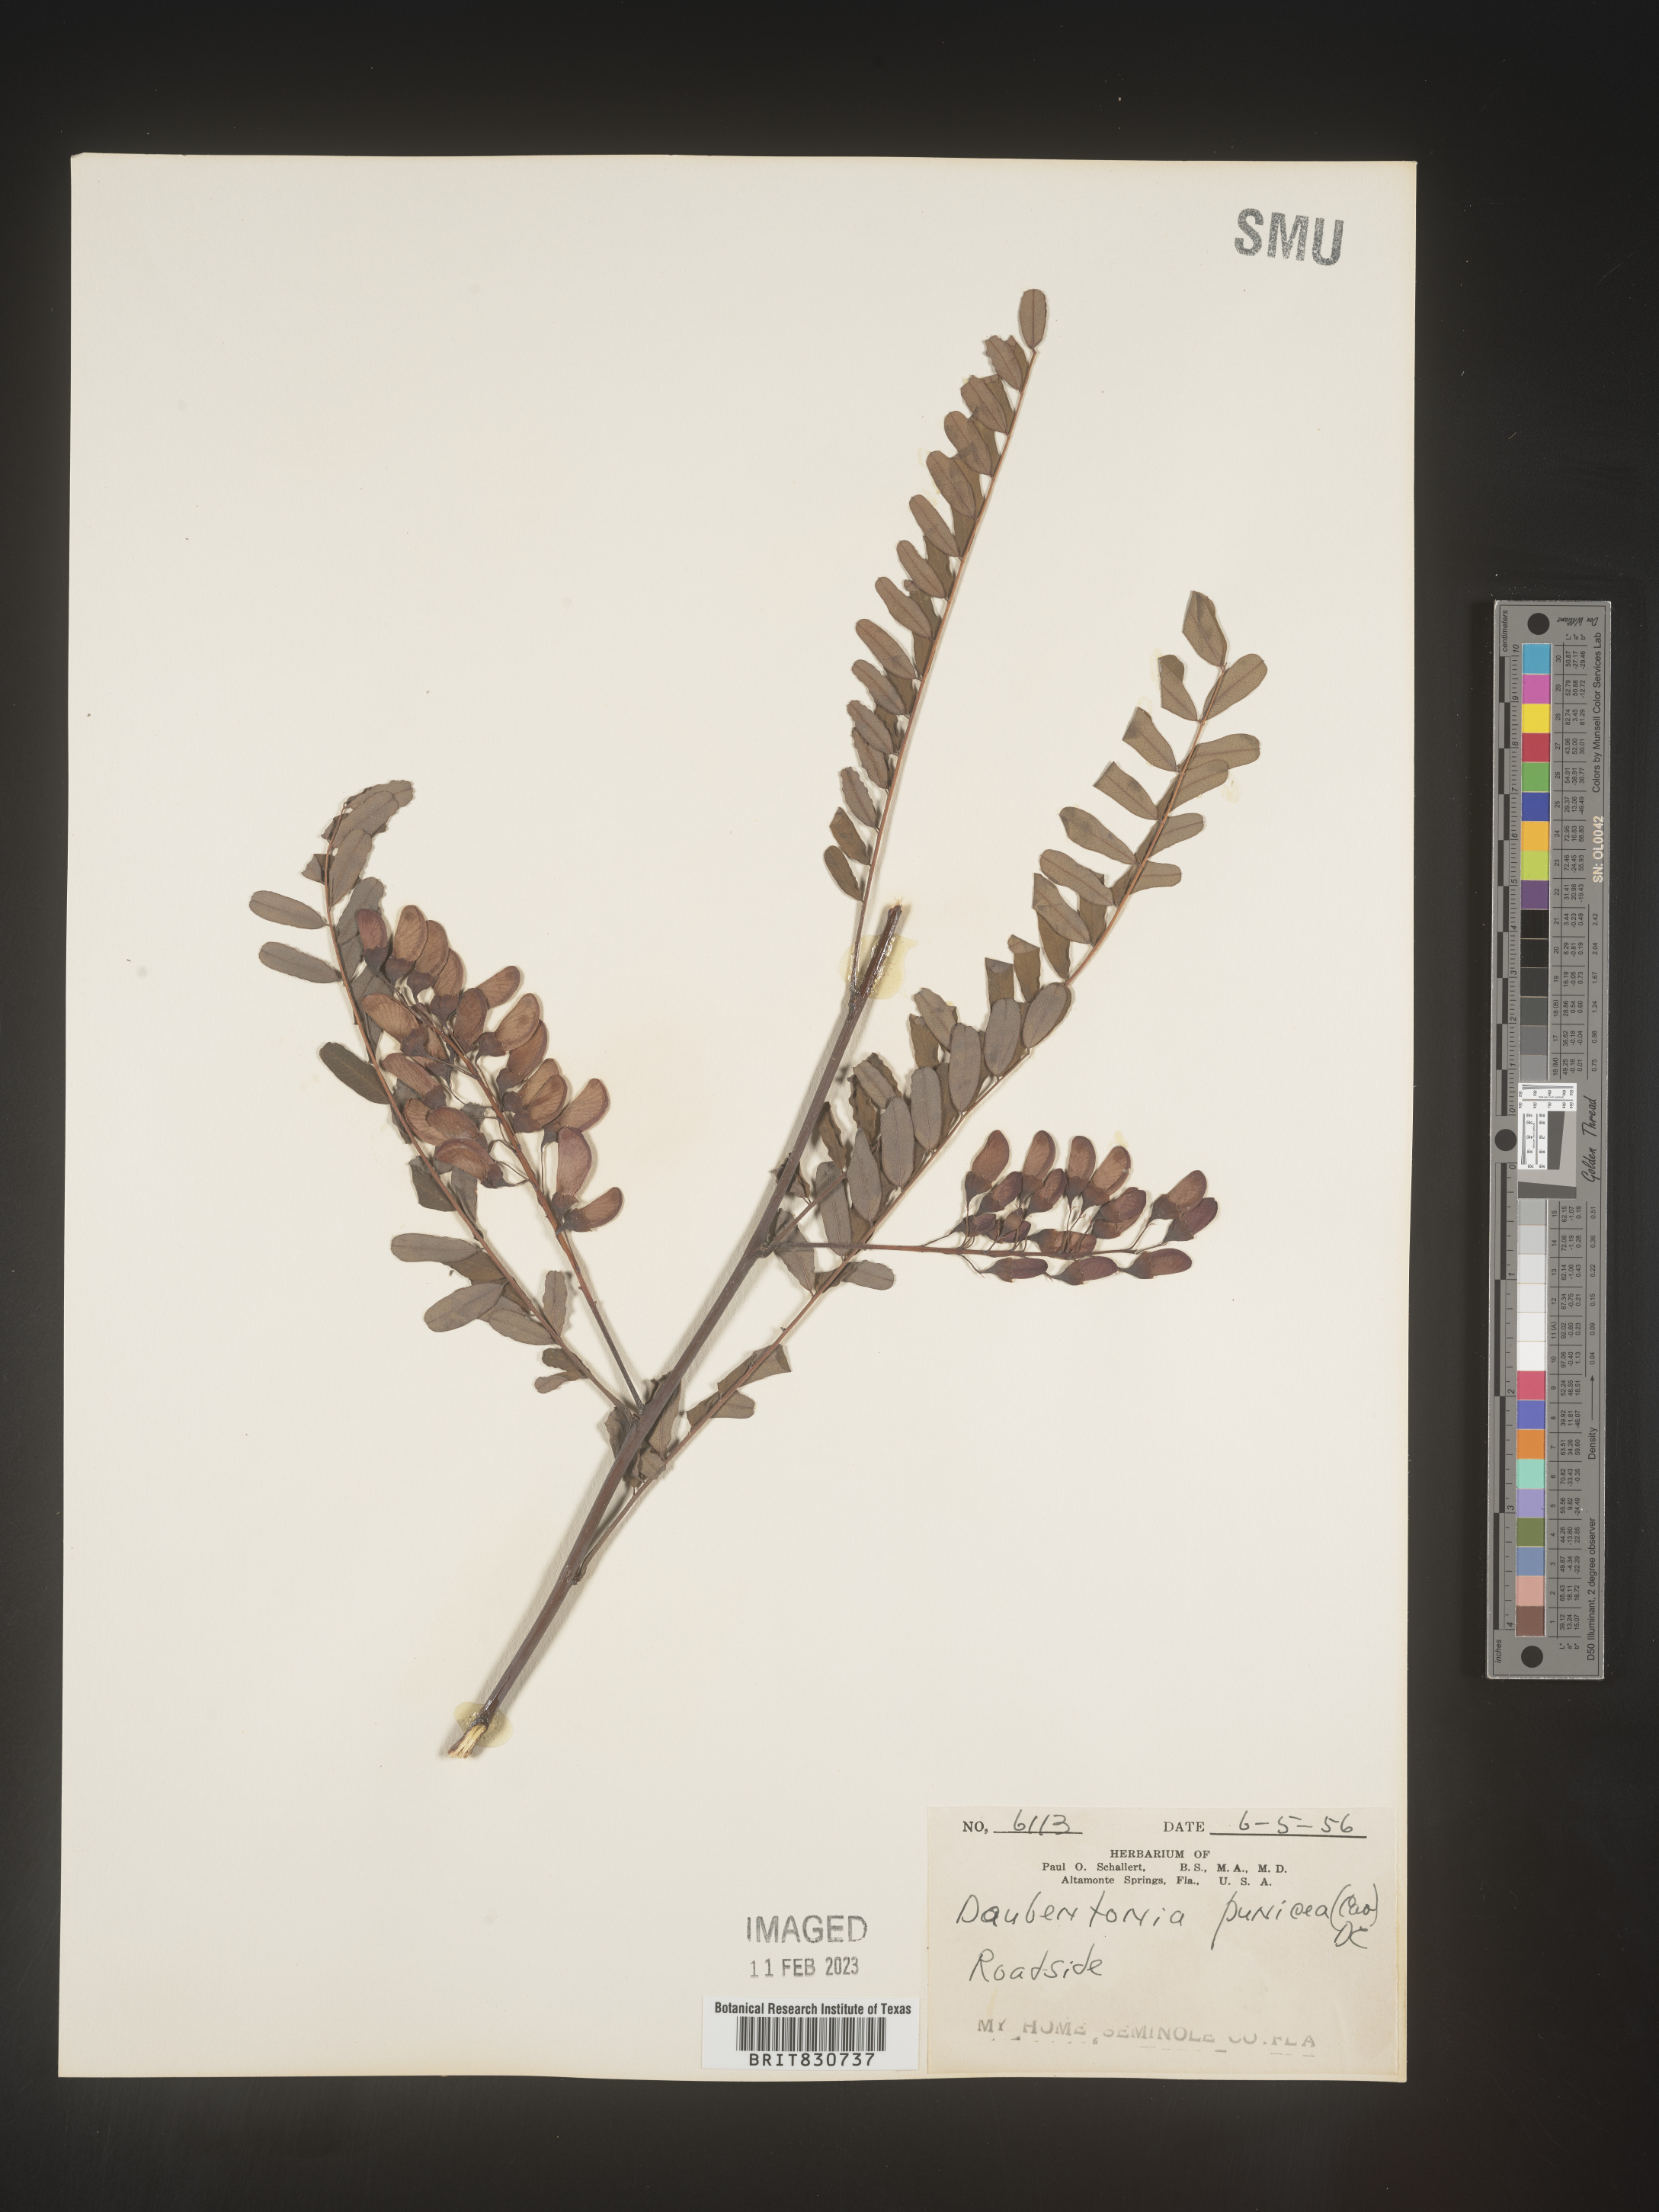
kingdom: Plantae
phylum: Tracheophyta
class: Magnoliopsida
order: Fabales
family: Fabaceae
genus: Sesbania
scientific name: Sesbania punicea
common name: Rattlebox
